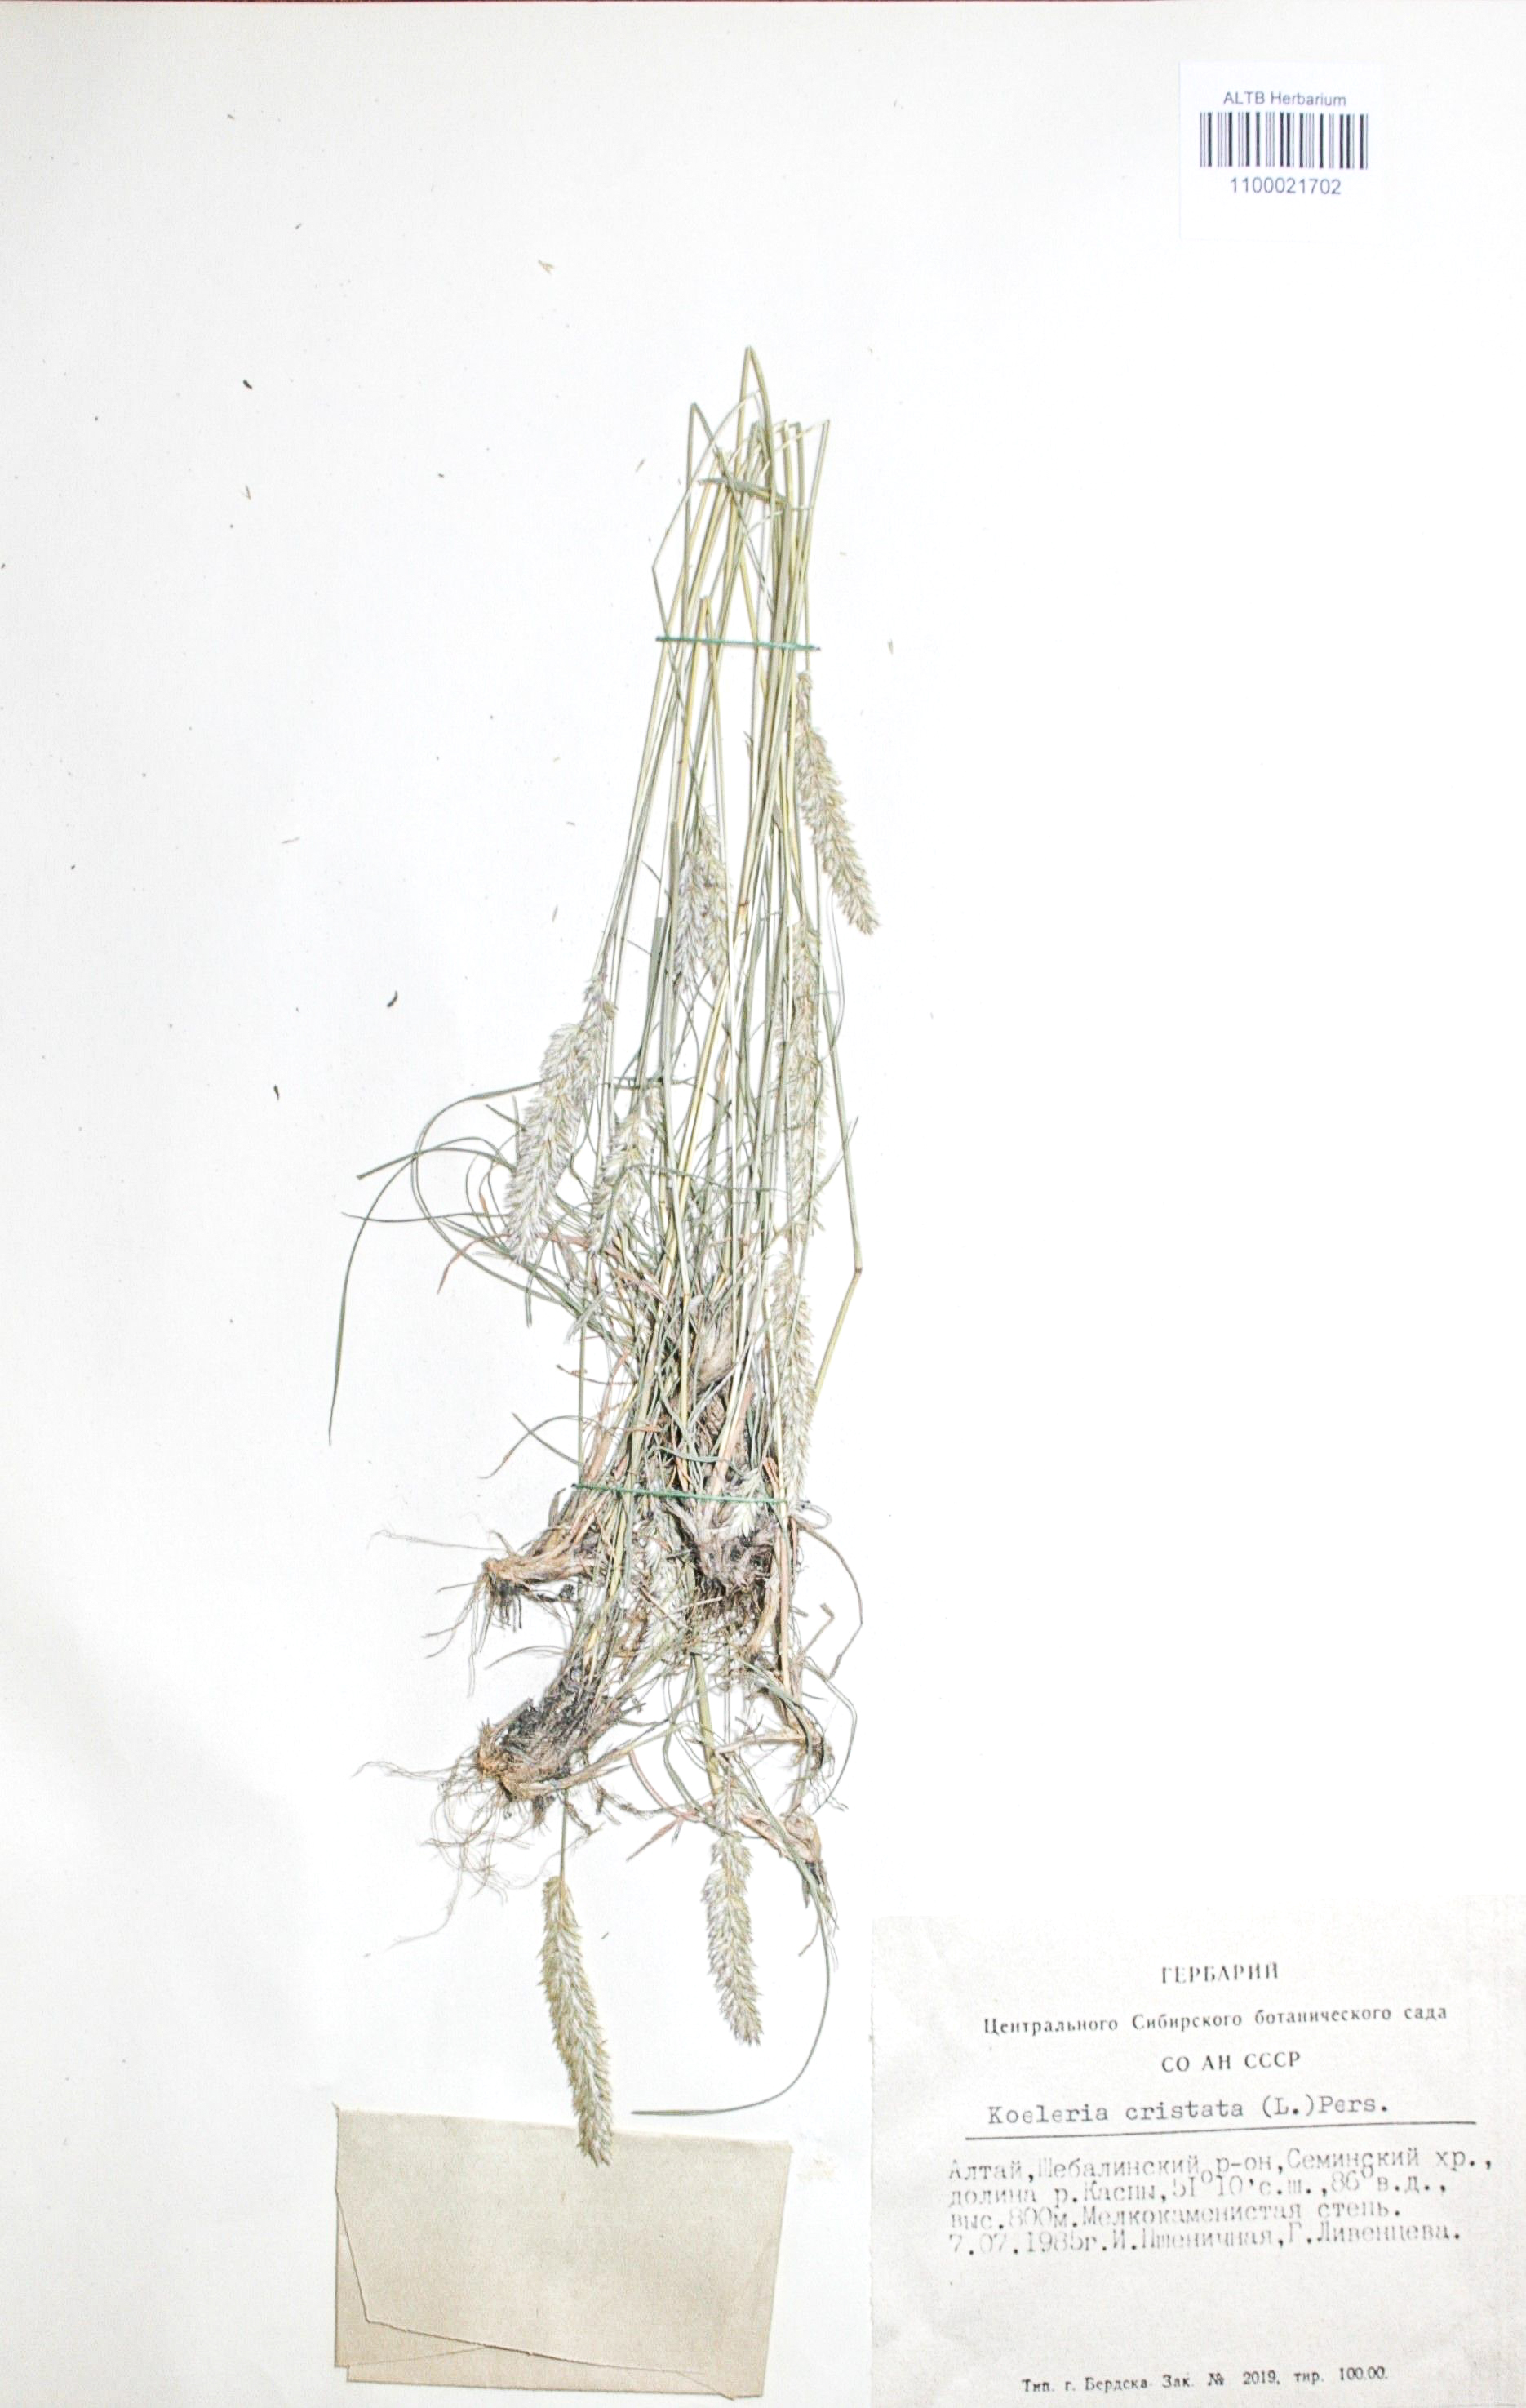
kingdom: Plantae
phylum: Tracheophyta
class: Liliopsida
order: Poales
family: Poaceae
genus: Koeleria
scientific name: Koeleria pyramidata
